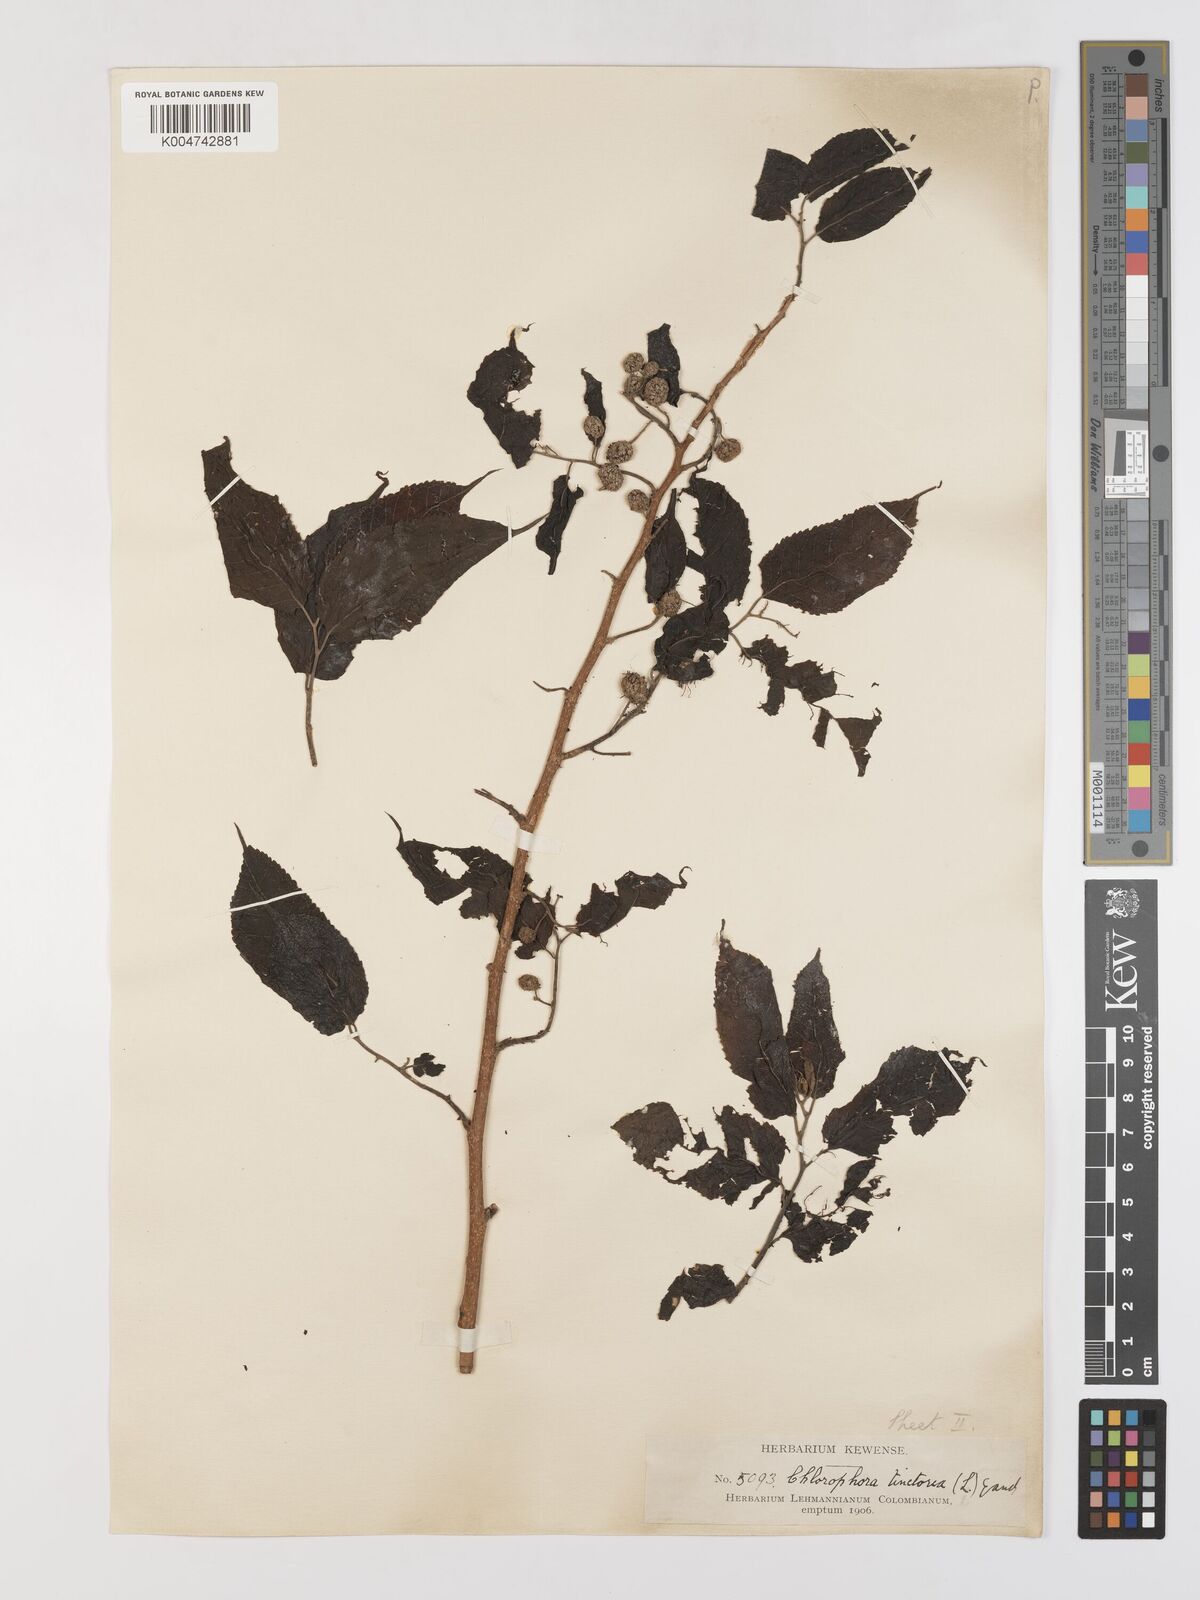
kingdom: Plantae
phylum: Tracheophyta
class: Magnoliopsida
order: Rosales
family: Moraceae
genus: Maclura
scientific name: Maclura tinctoria
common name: Old fustic
